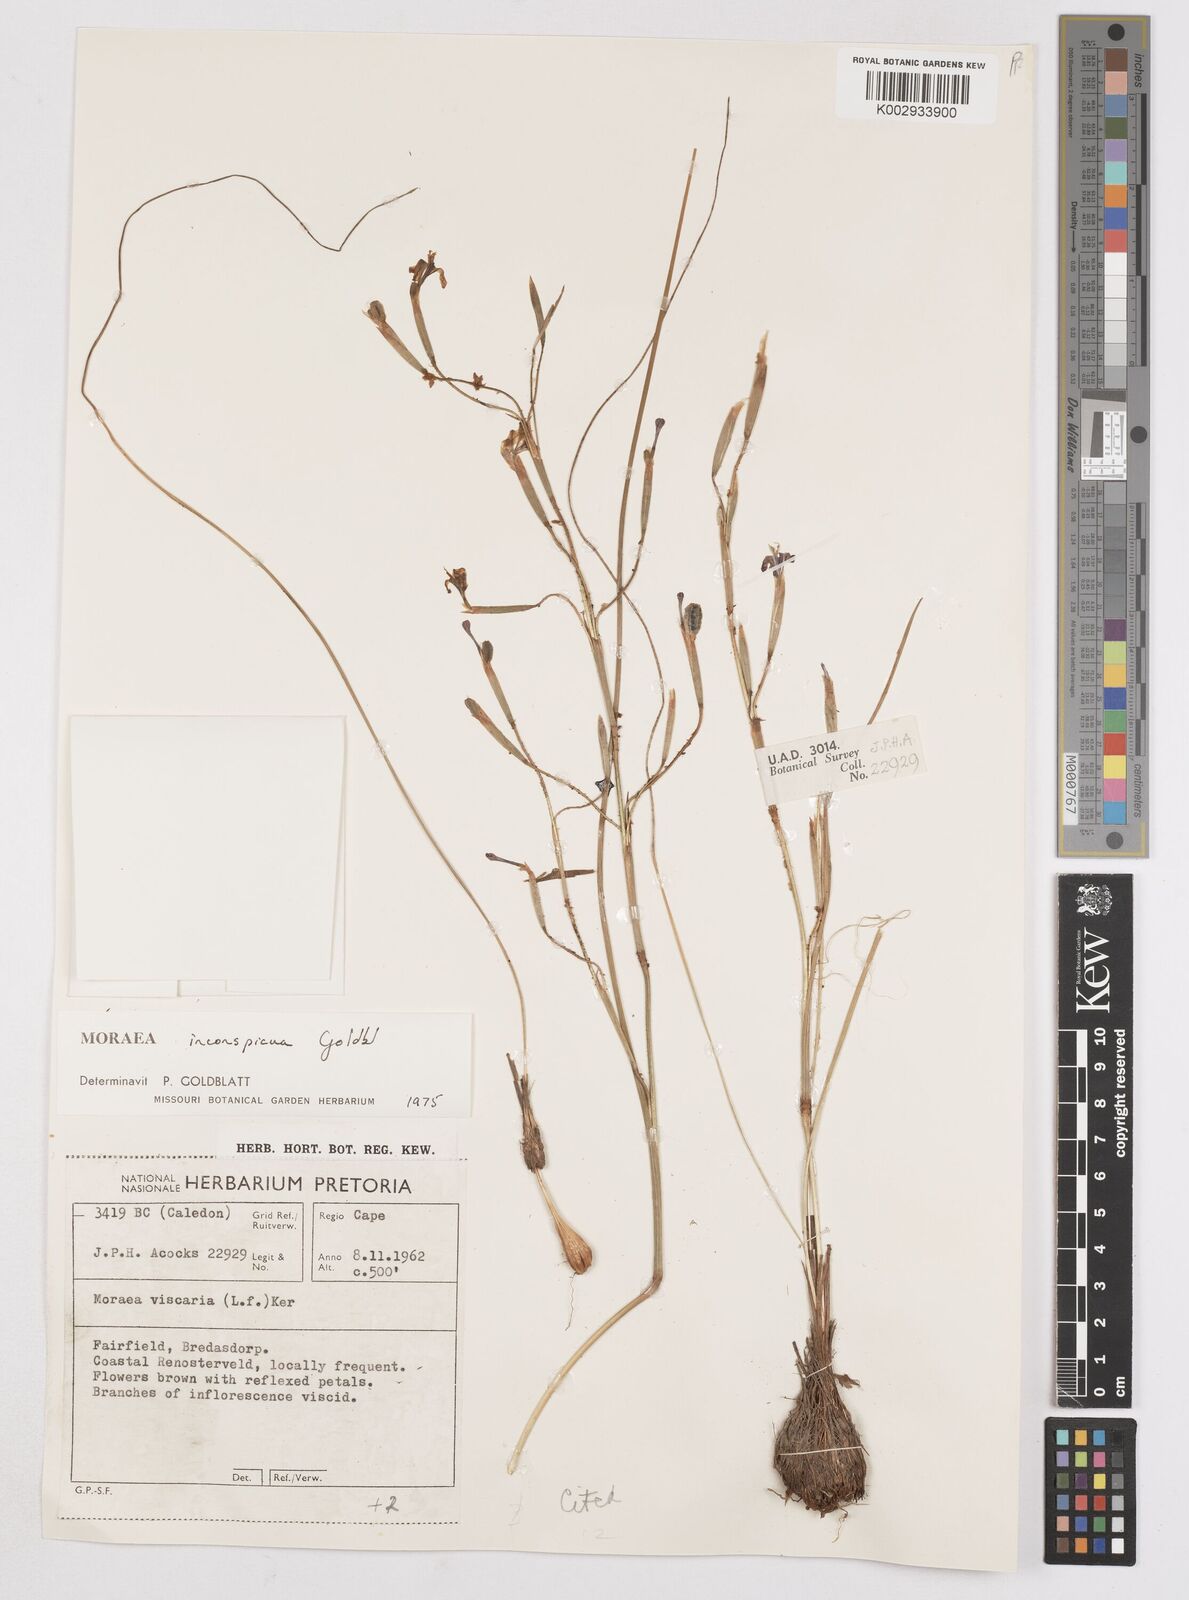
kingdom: Plantae
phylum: Tracheophyta
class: Liliopsida
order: Asparagales
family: Iridaceae
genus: Moraea
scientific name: Moraea inconspicua
